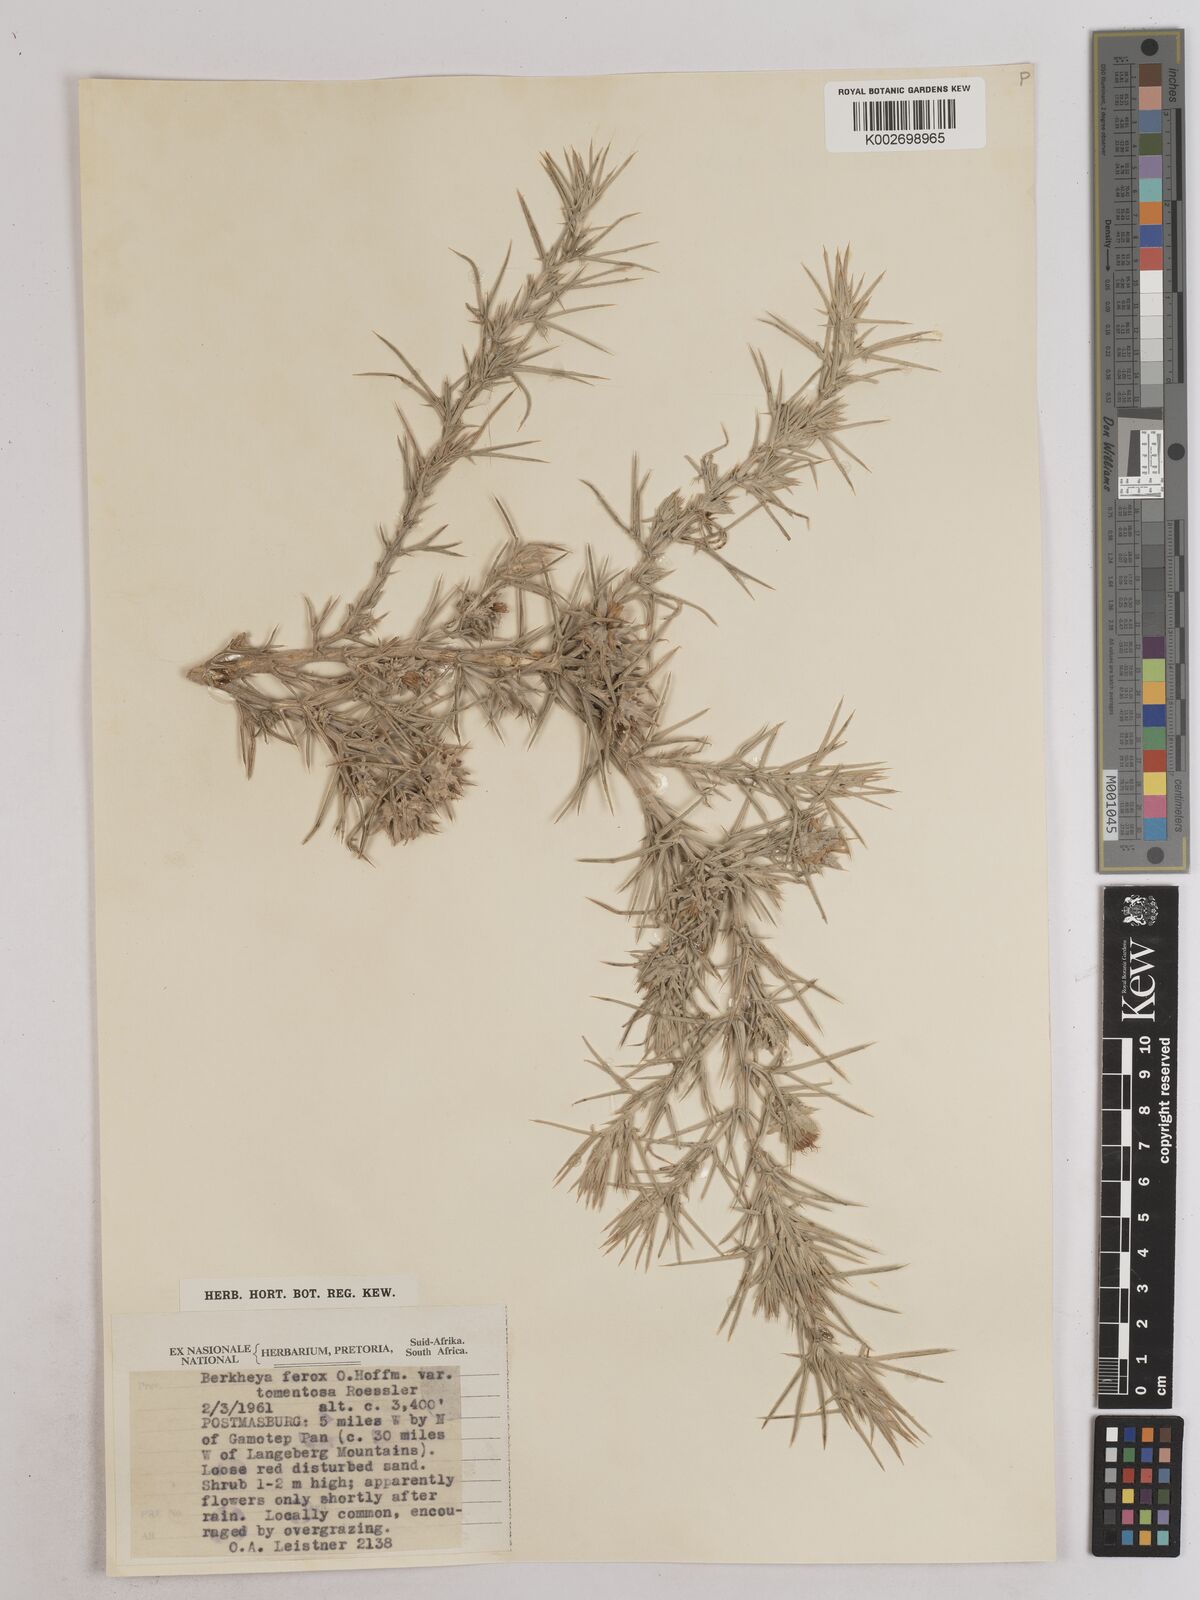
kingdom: Plantae
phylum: Tracheophyta
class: Magnoliopsida
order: Asterales
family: Asteraceae
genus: Berkheya
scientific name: Berkheya ferox
